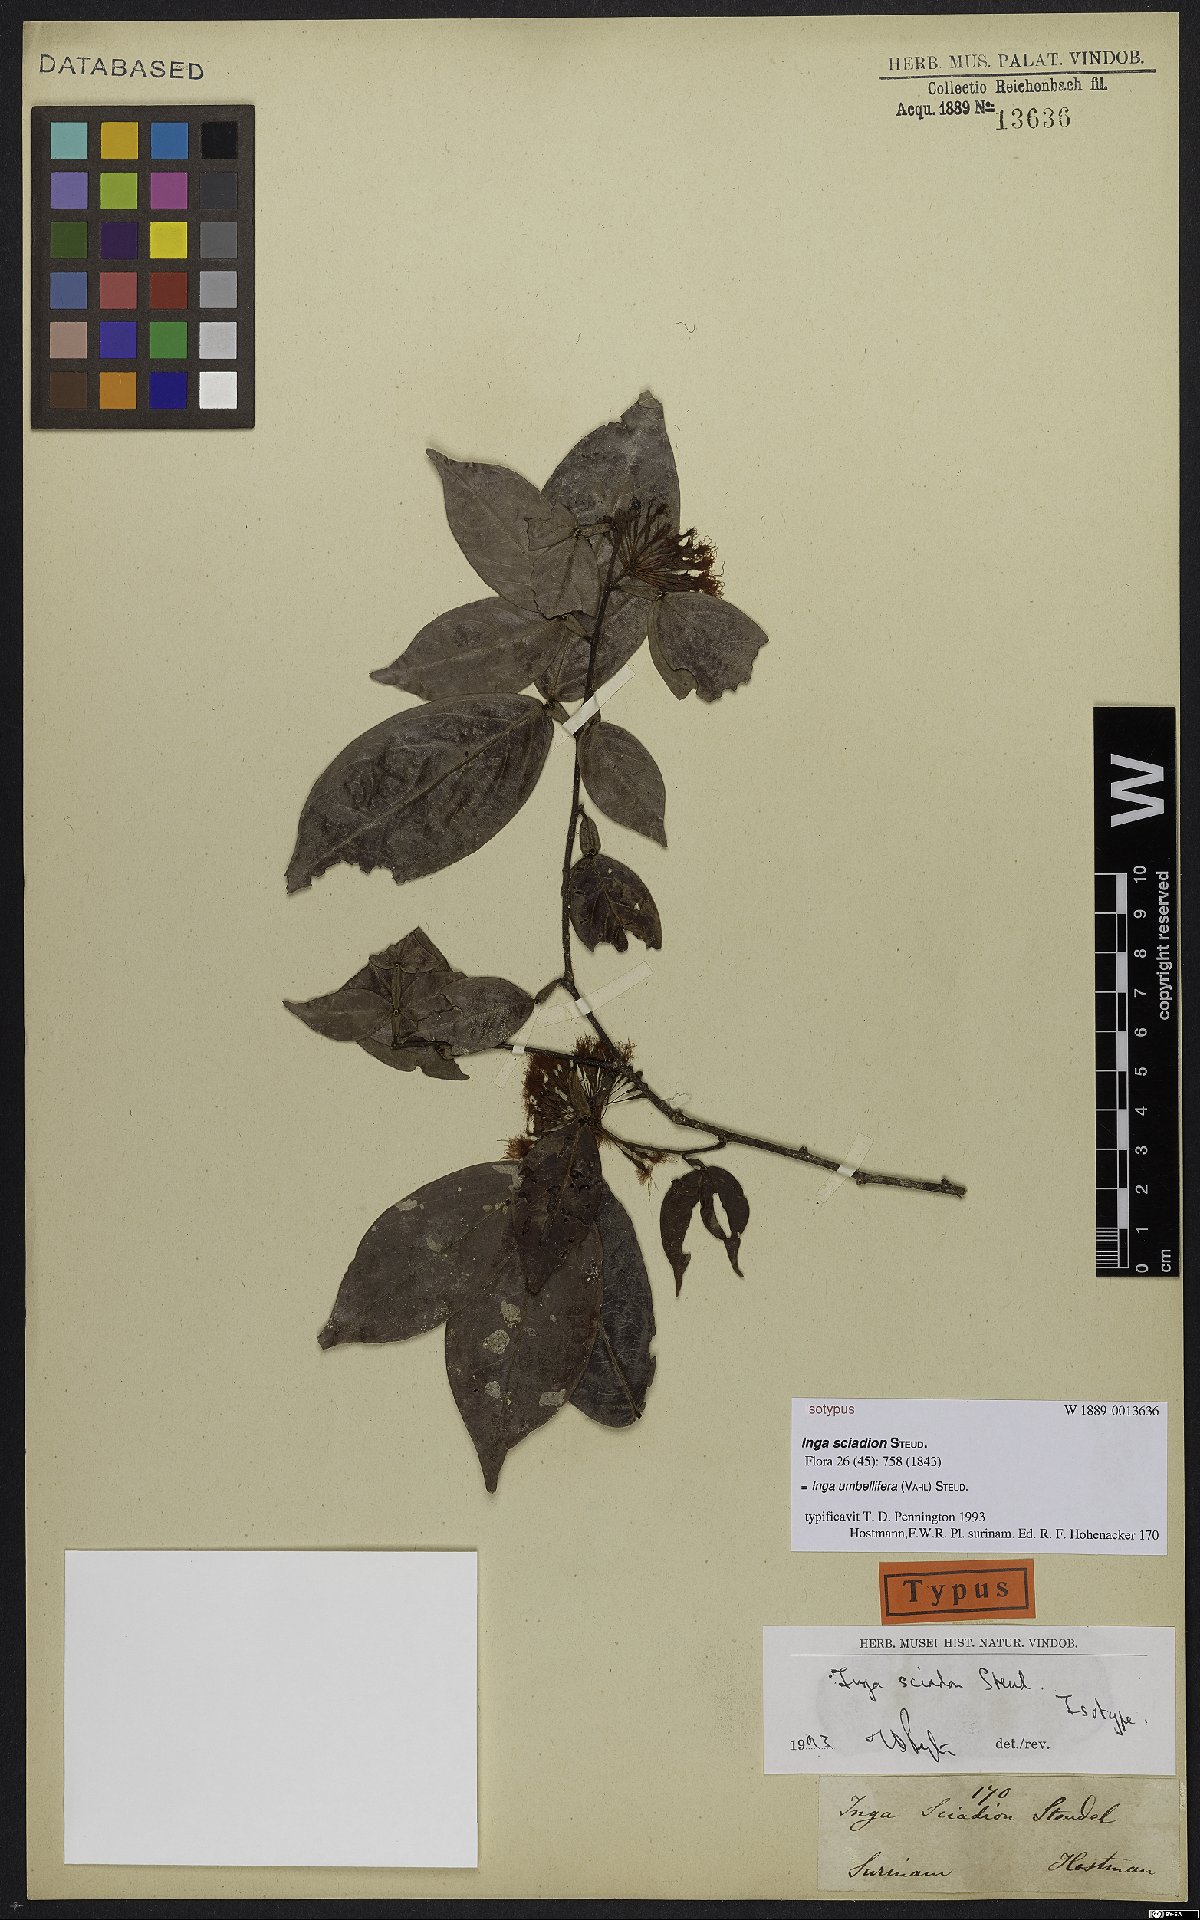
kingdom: Plantae
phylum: Tracheophyta
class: Magnoliopsida
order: Fabales
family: Fabaceae
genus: Inga
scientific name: Inga umbellifera
